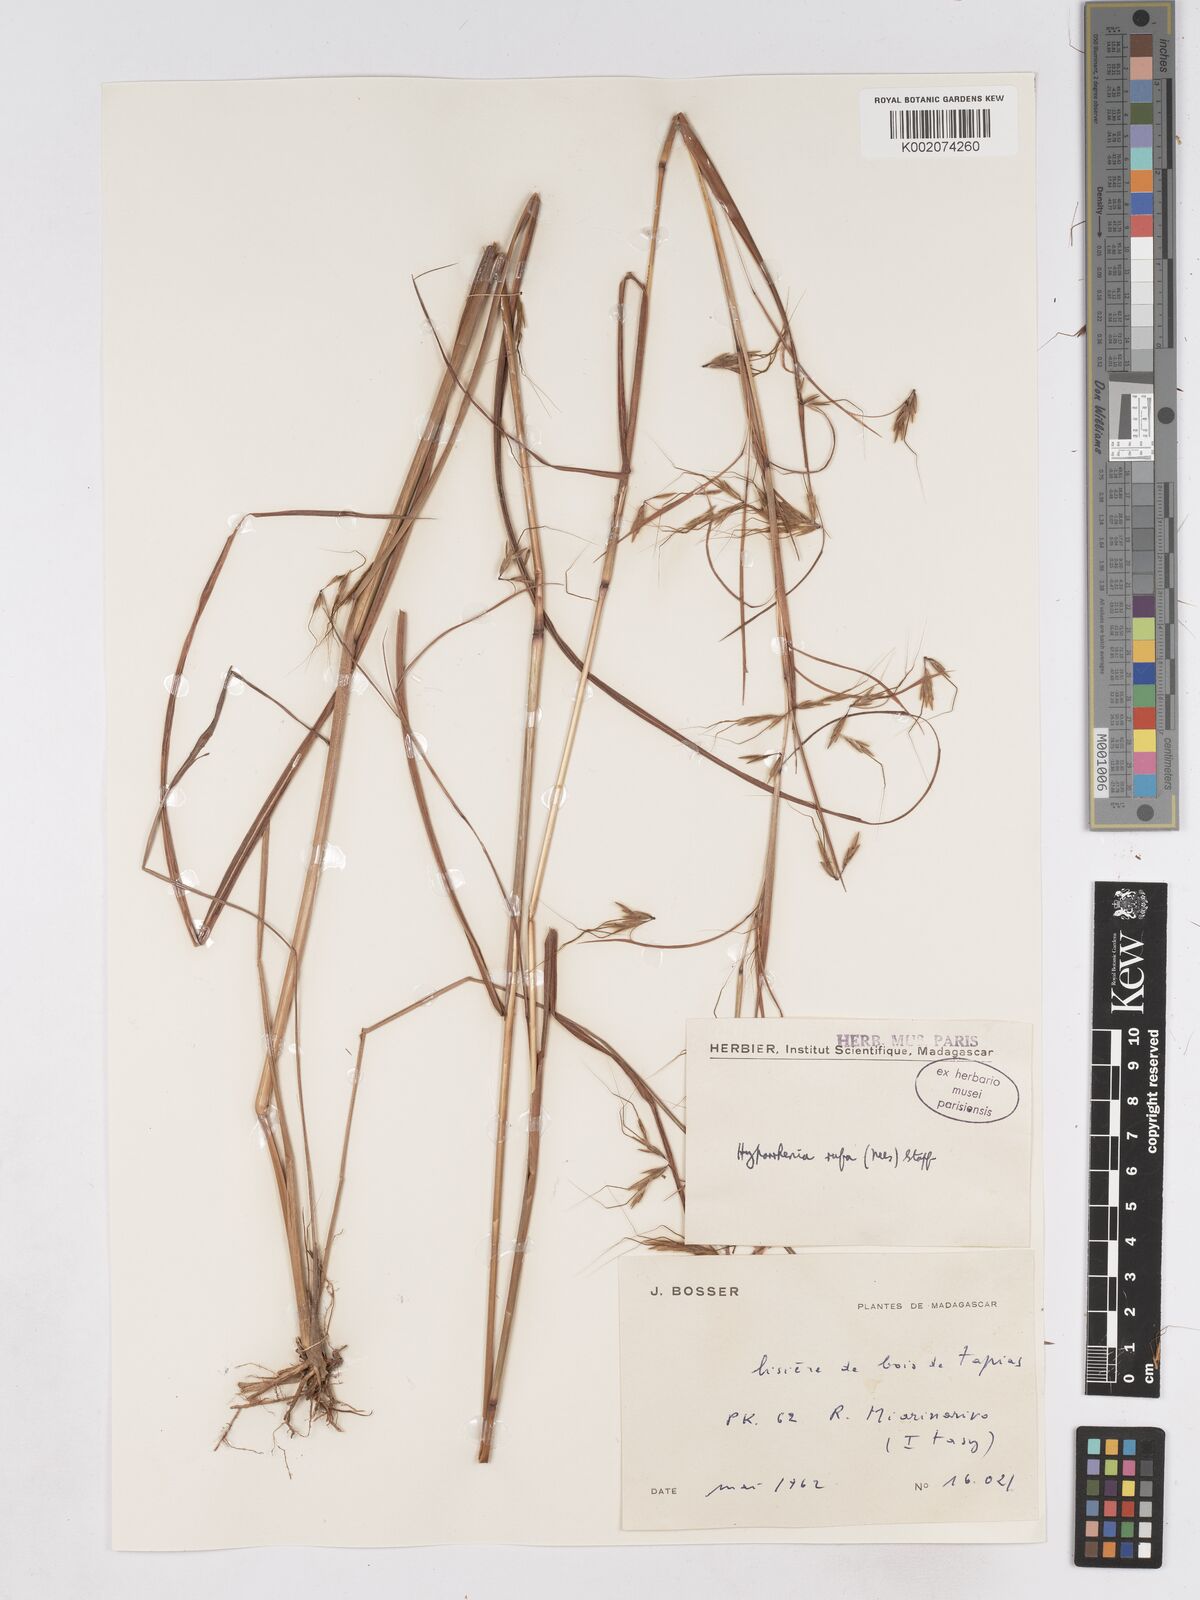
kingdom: Plantae
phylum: Tracheophyta
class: Liliopsida
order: Poales
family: Poaceae
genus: Hyparrhenia
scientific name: Hyparrhenia rufa
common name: Jaraguagrass
